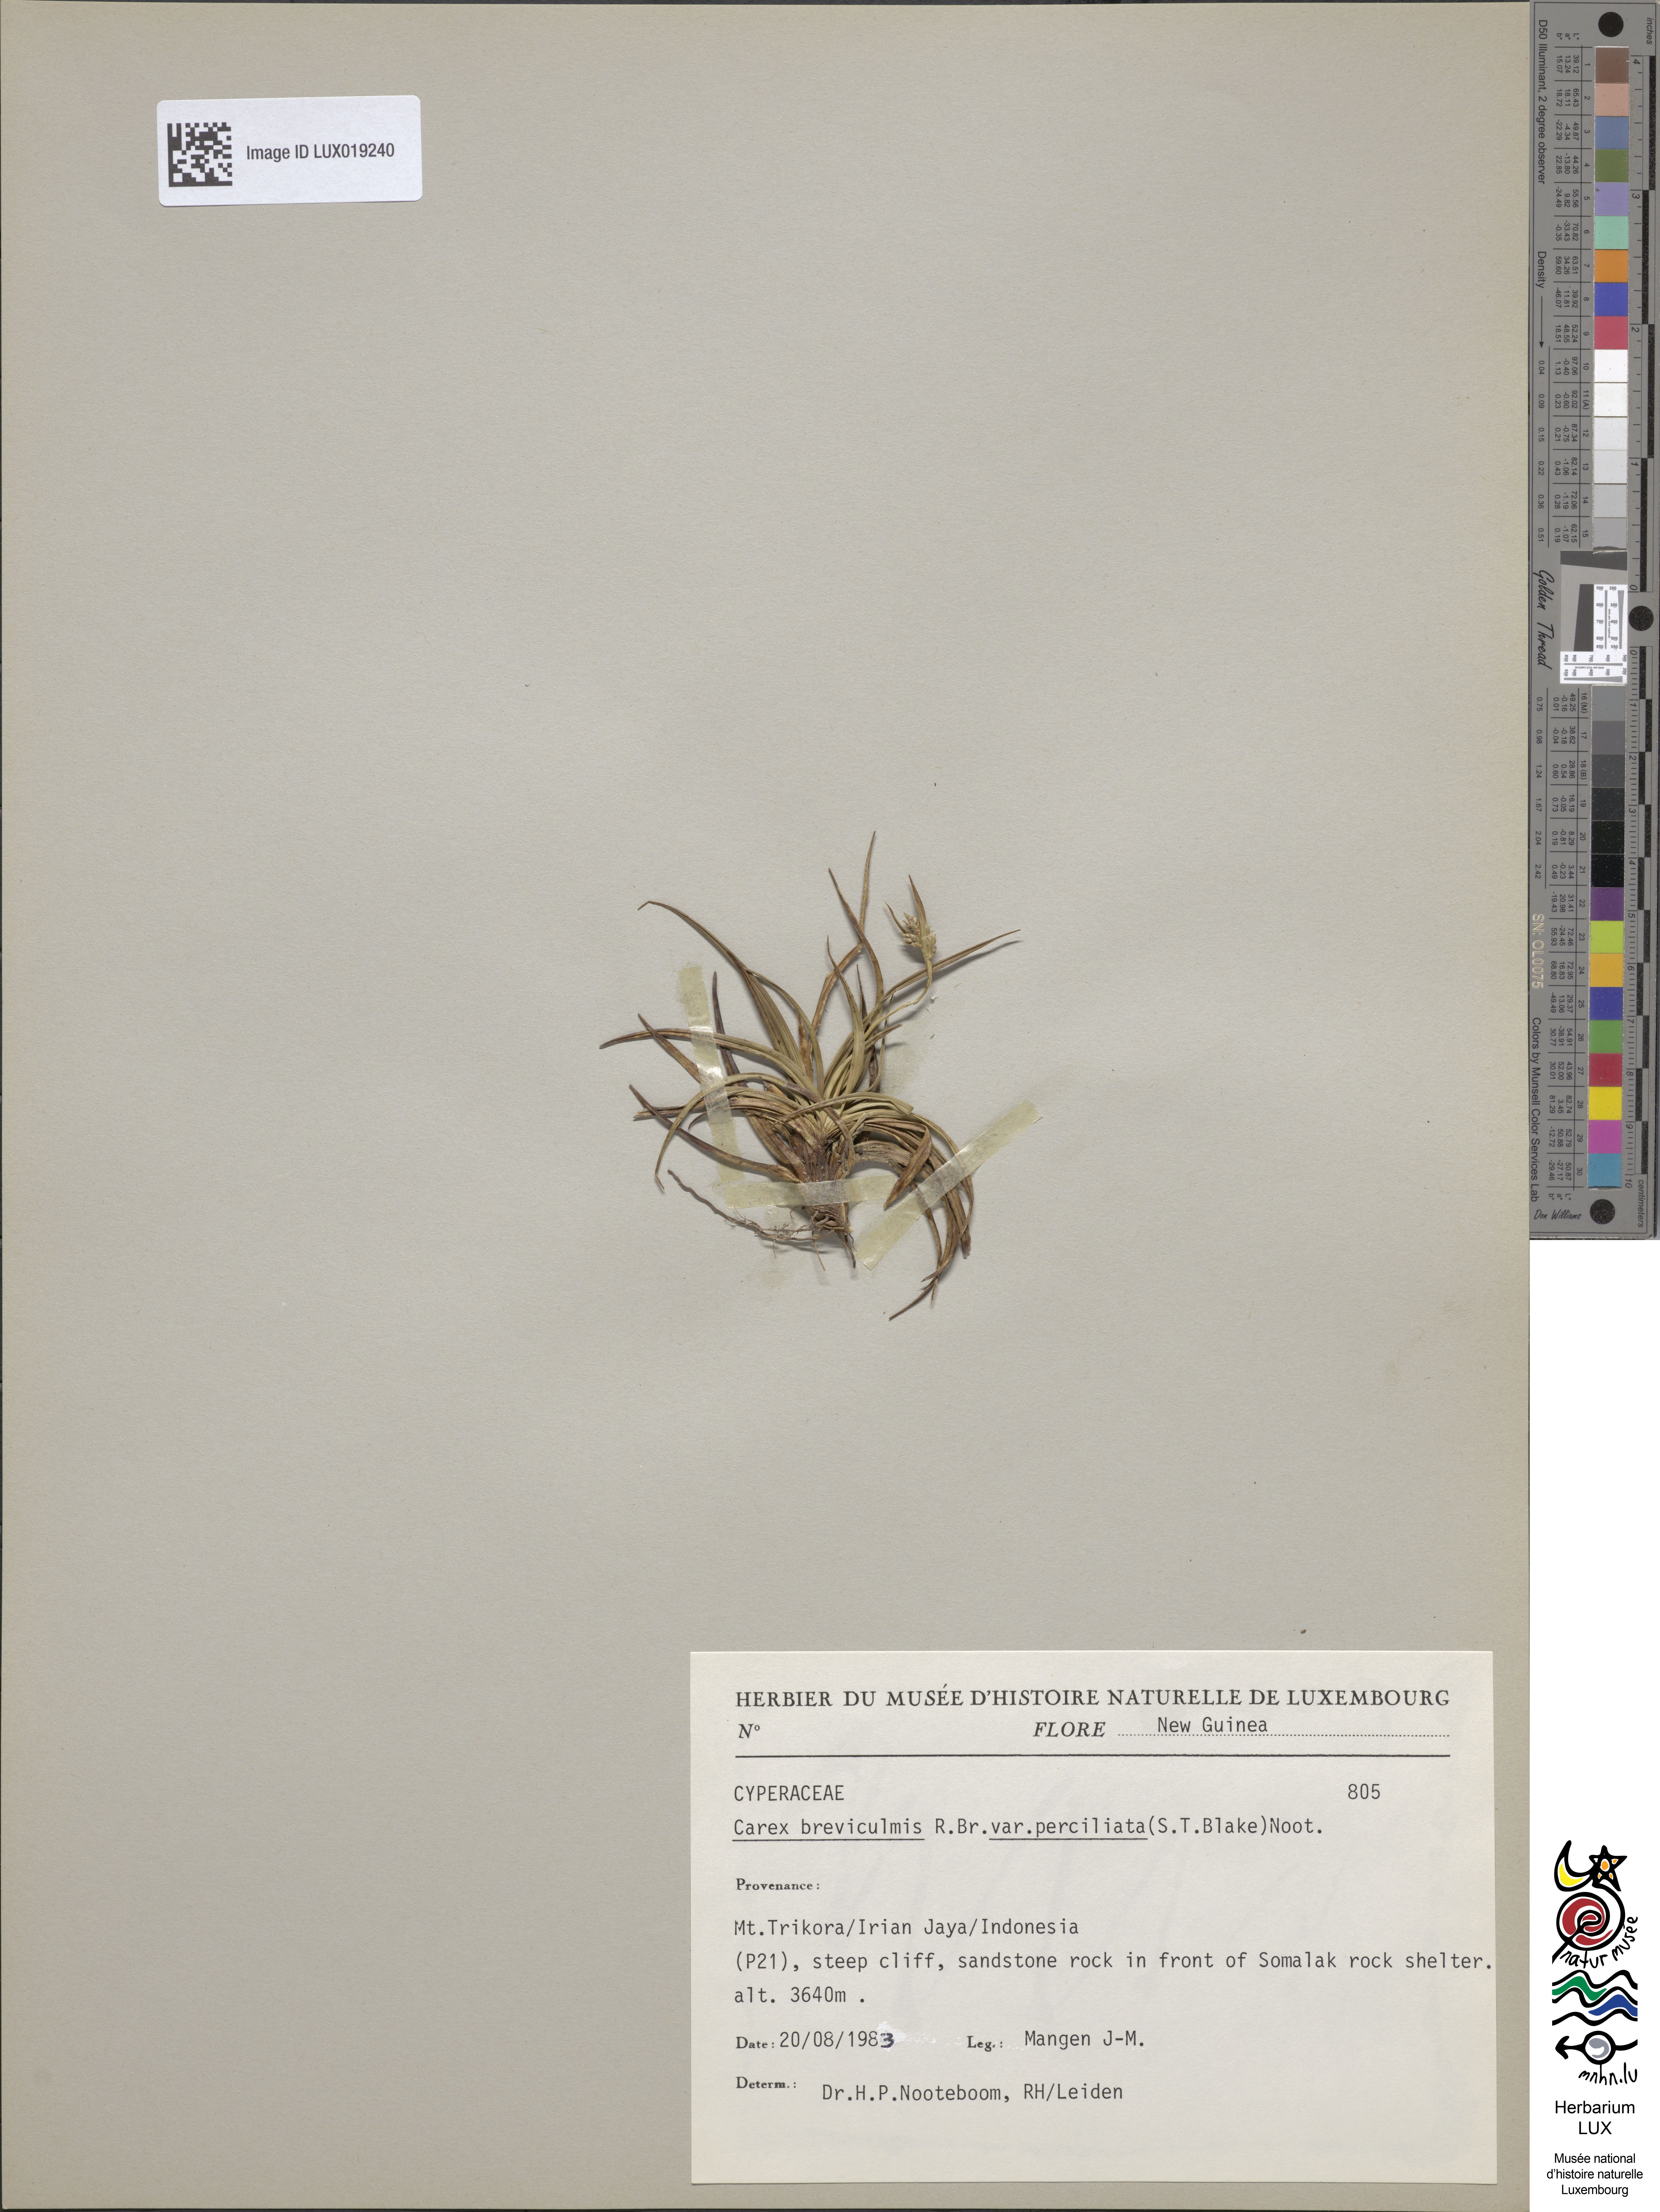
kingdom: Plantae
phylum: Tracheophyta
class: Liliopsida
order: Poales
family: Cyperaceae
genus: Carex
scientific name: Carex breviculmis
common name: Asian shortstem sedge
